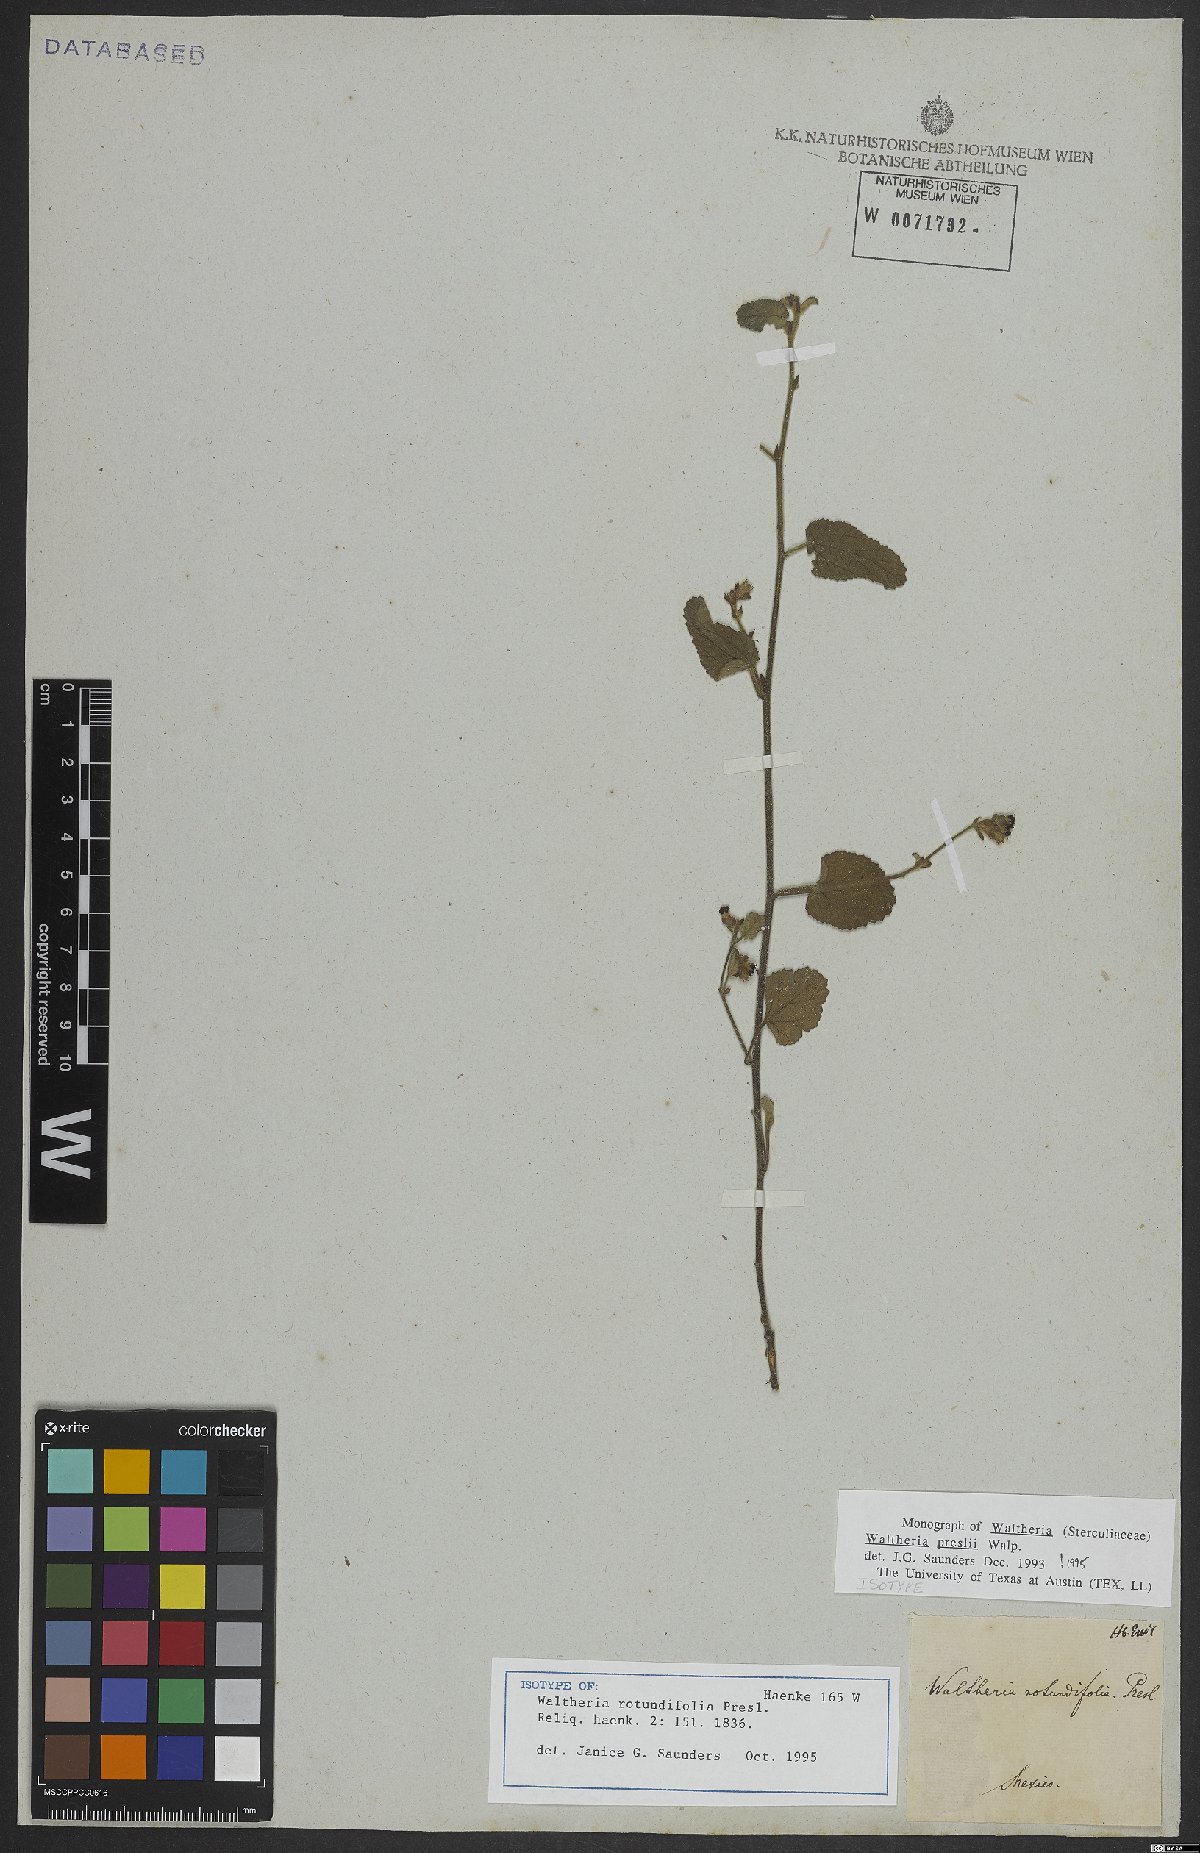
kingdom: Plantae
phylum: Tracheophyta
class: Magnoliopsida
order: Malvales
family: Malvaceae
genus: Waltheria
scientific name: Waltheria preslii
